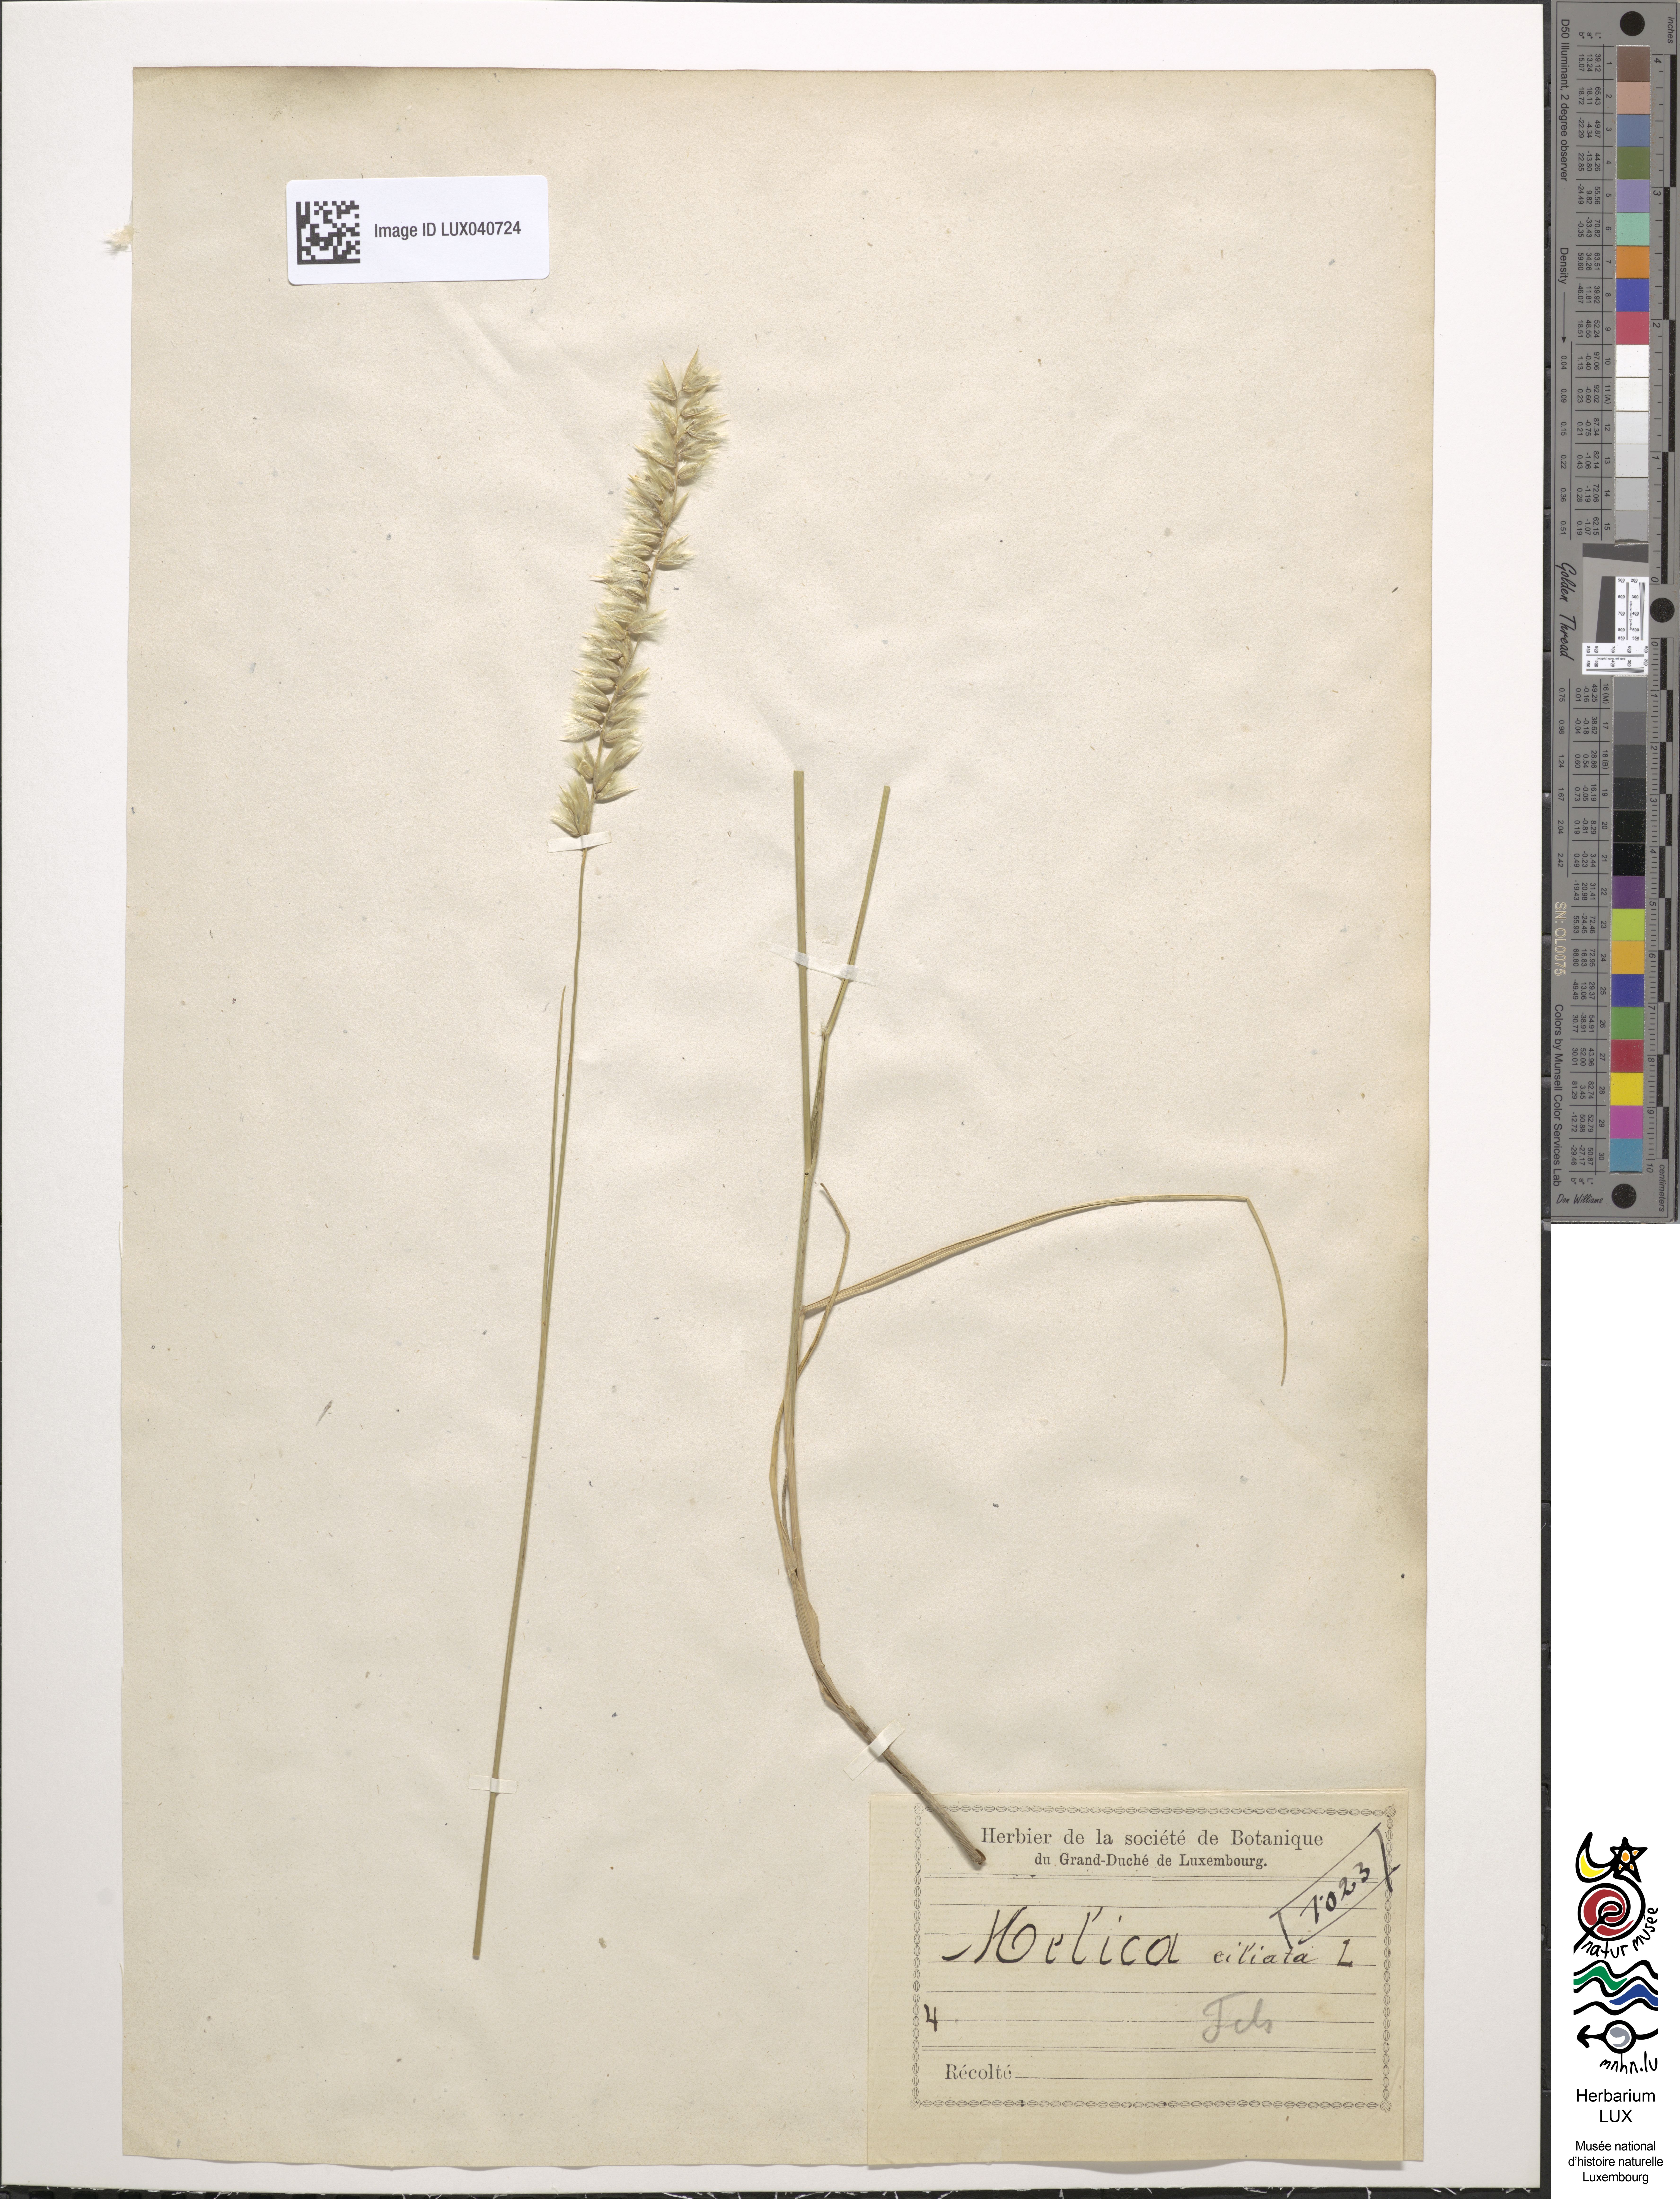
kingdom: Plantae
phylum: Tracheophyta
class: Liliopsida
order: Poales
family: Poaceae
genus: Melica
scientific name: Melica ciliata
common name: Hairy melicgrass
